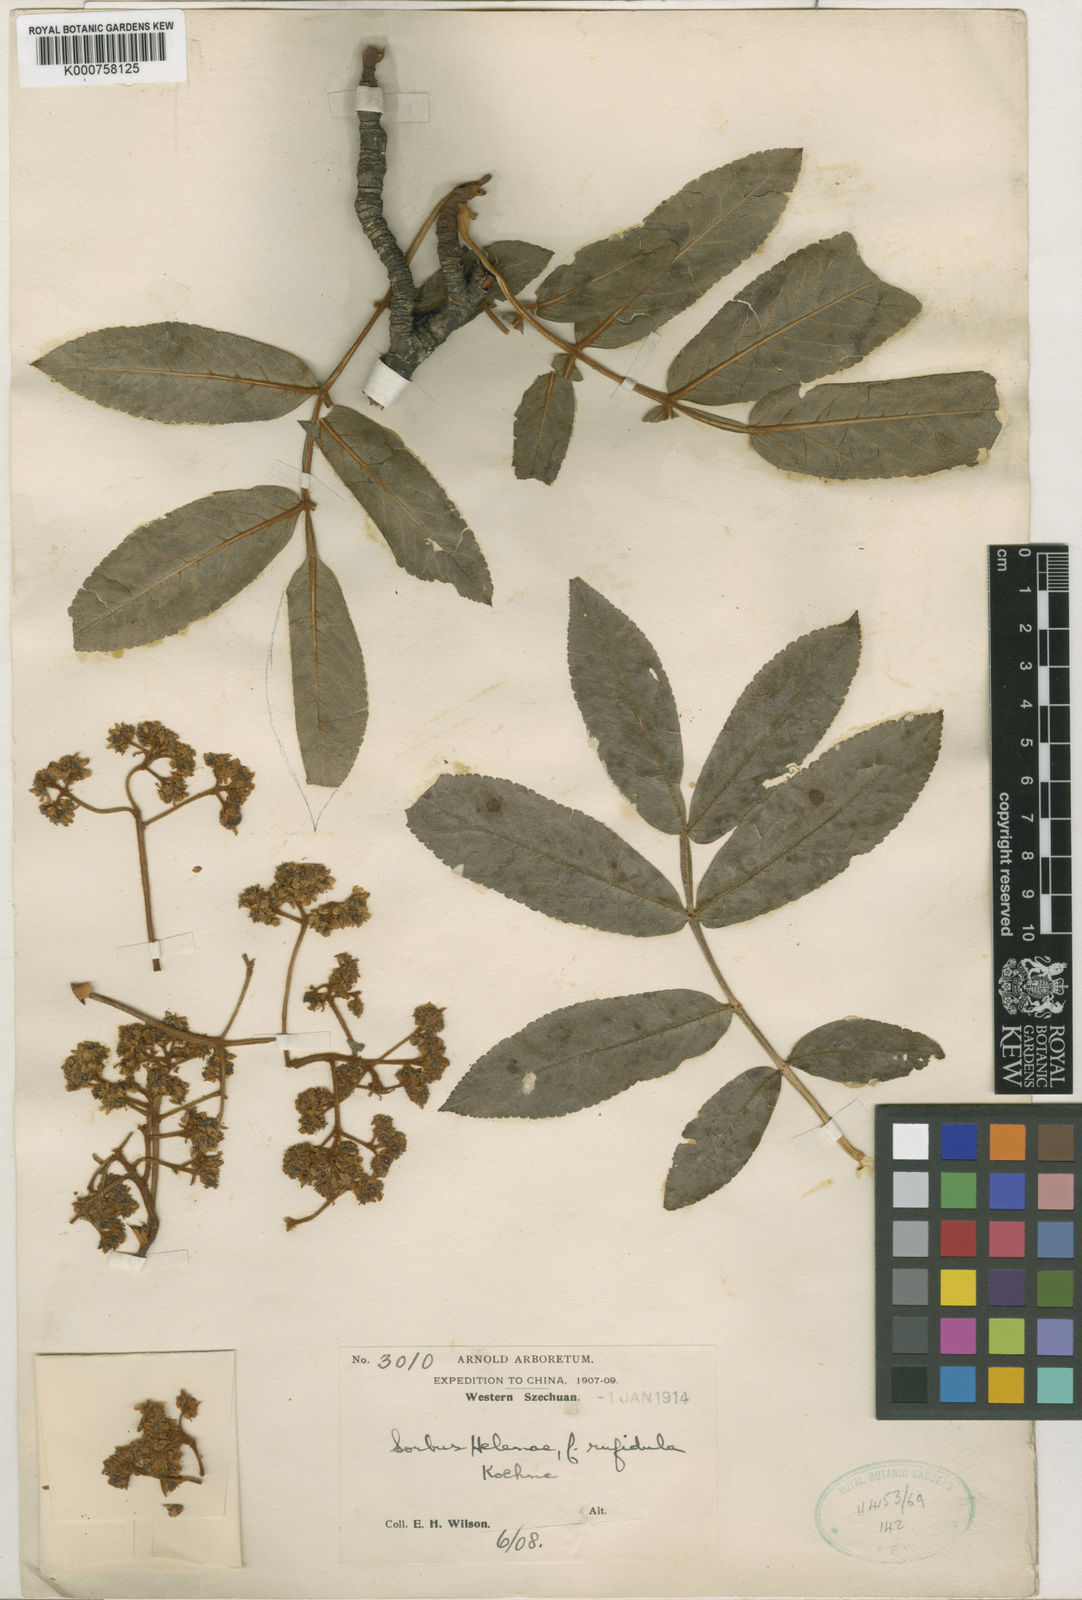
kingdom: Plantae
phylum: Tracheophyta
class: Magnoliopsida
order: Rosales
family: Rosaceae
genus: Sorbus
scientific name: Sorbus helenae
